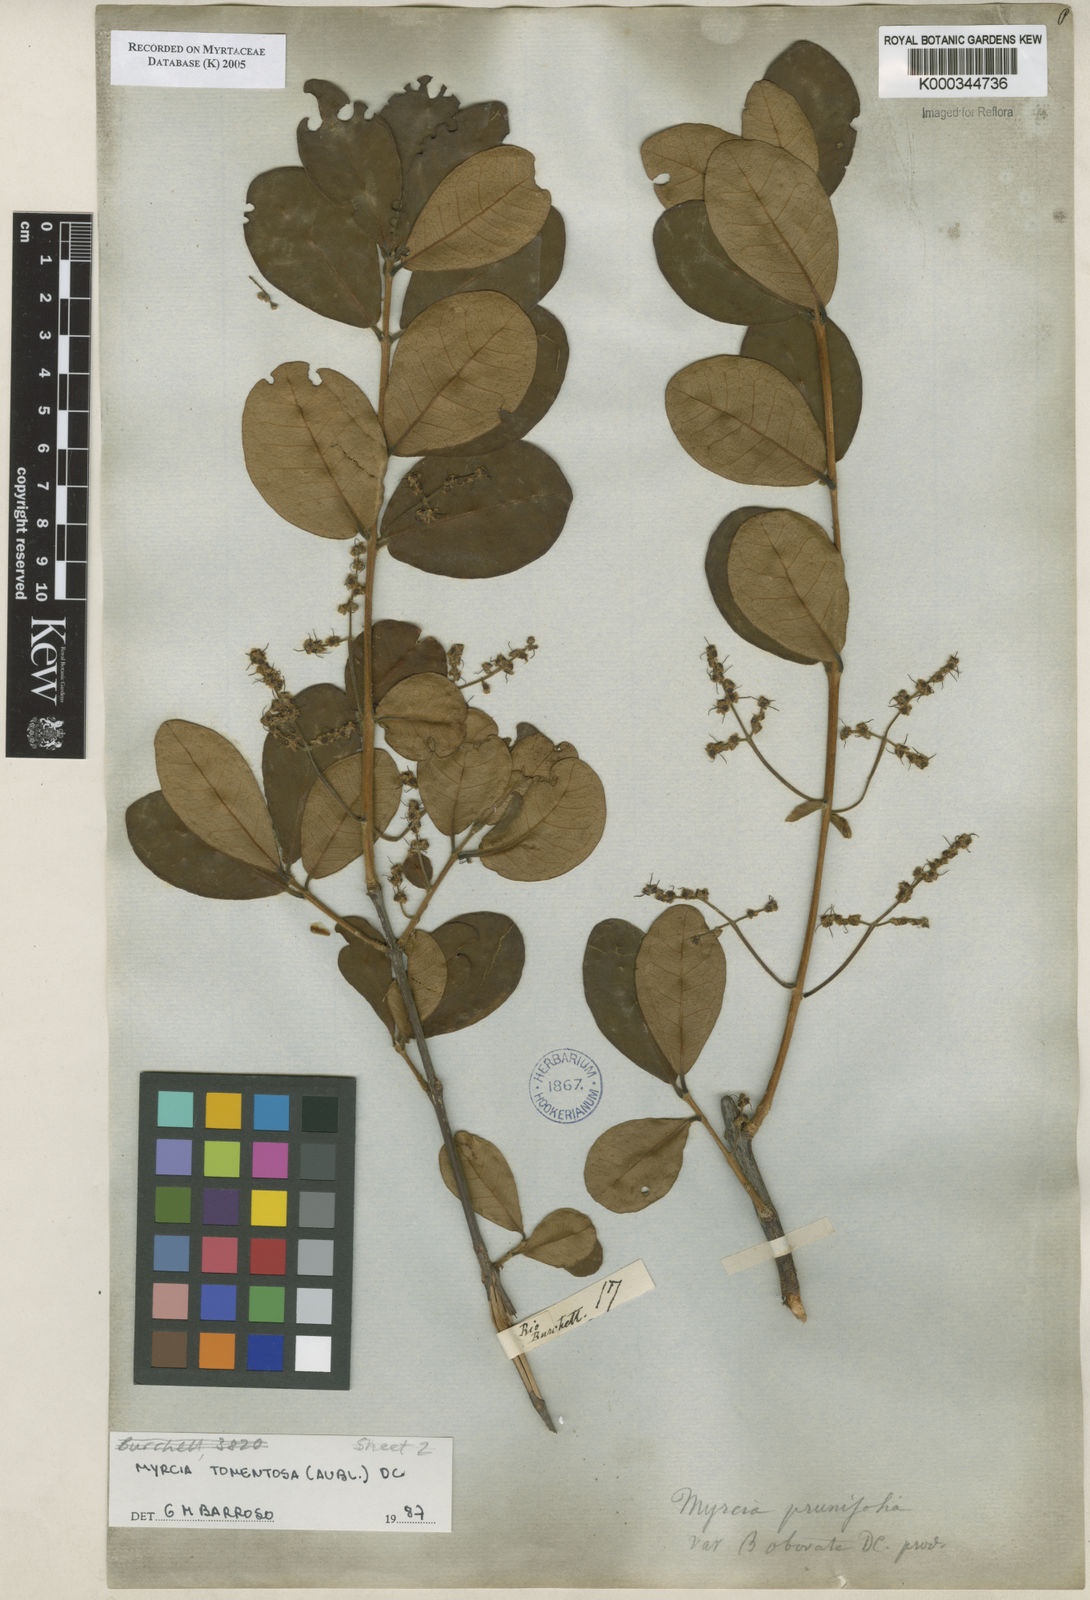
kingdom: Plantae
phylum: Tracheophyta
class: Magnoliopsida
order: Myrtales
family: Myrtaceae
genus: Myrcia
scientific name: Myrcia tomentosa
